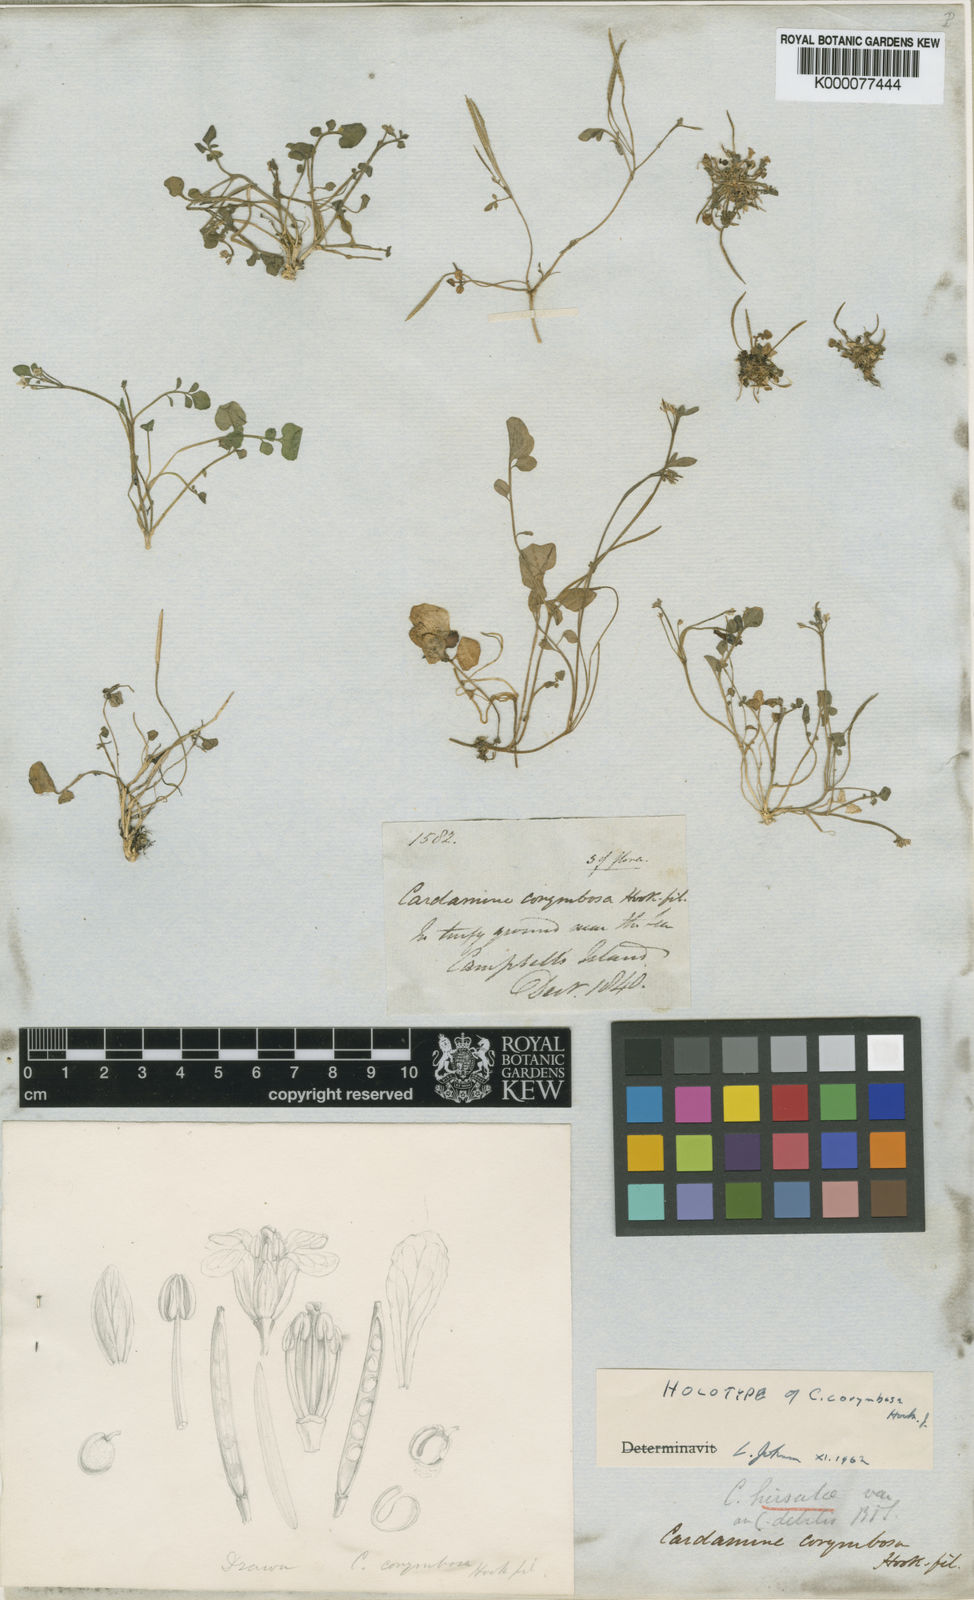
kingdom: Plantae
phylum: Tracheophyta
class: Magnoliopsida
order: Brassicales
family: Brassicaceae
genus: Cardamine
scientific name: Cardamine corymbosa
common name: New zealand bitter-cress
